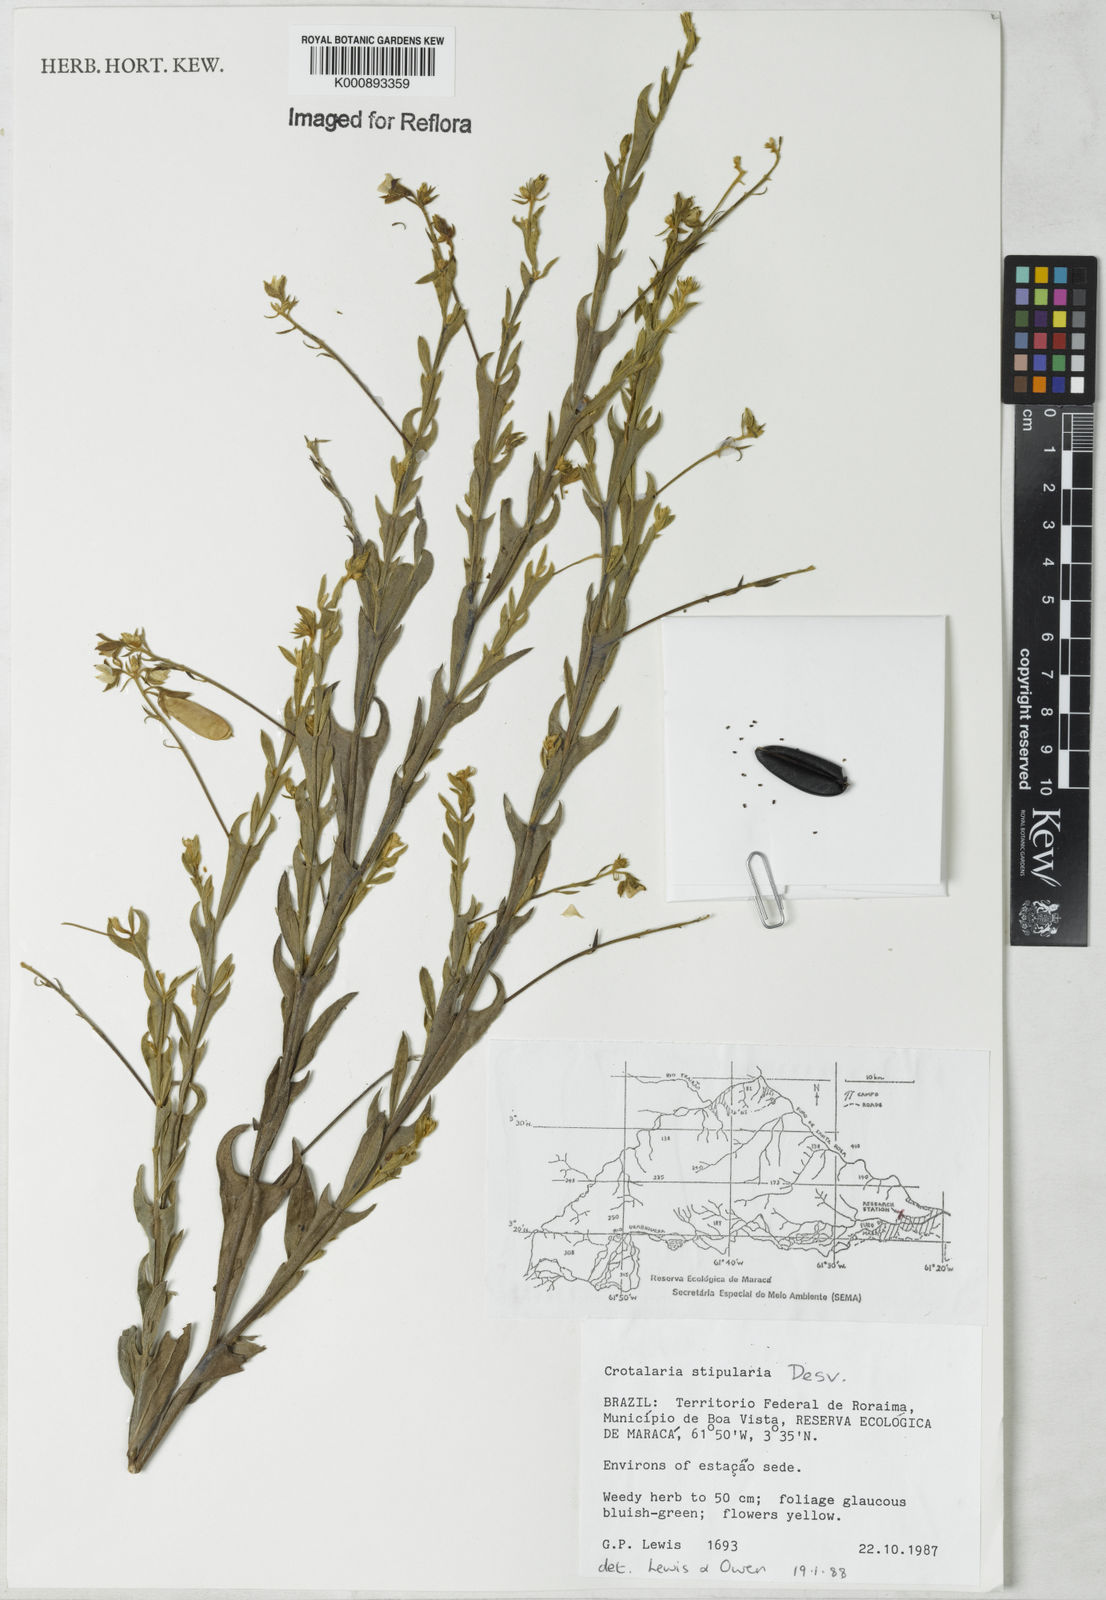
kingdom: Plantae
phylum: Tracheophyta
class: Magnoliopsida
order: Fabales
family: Fabaceae
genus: Crotalaria
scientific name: Crotalaria stipularia
